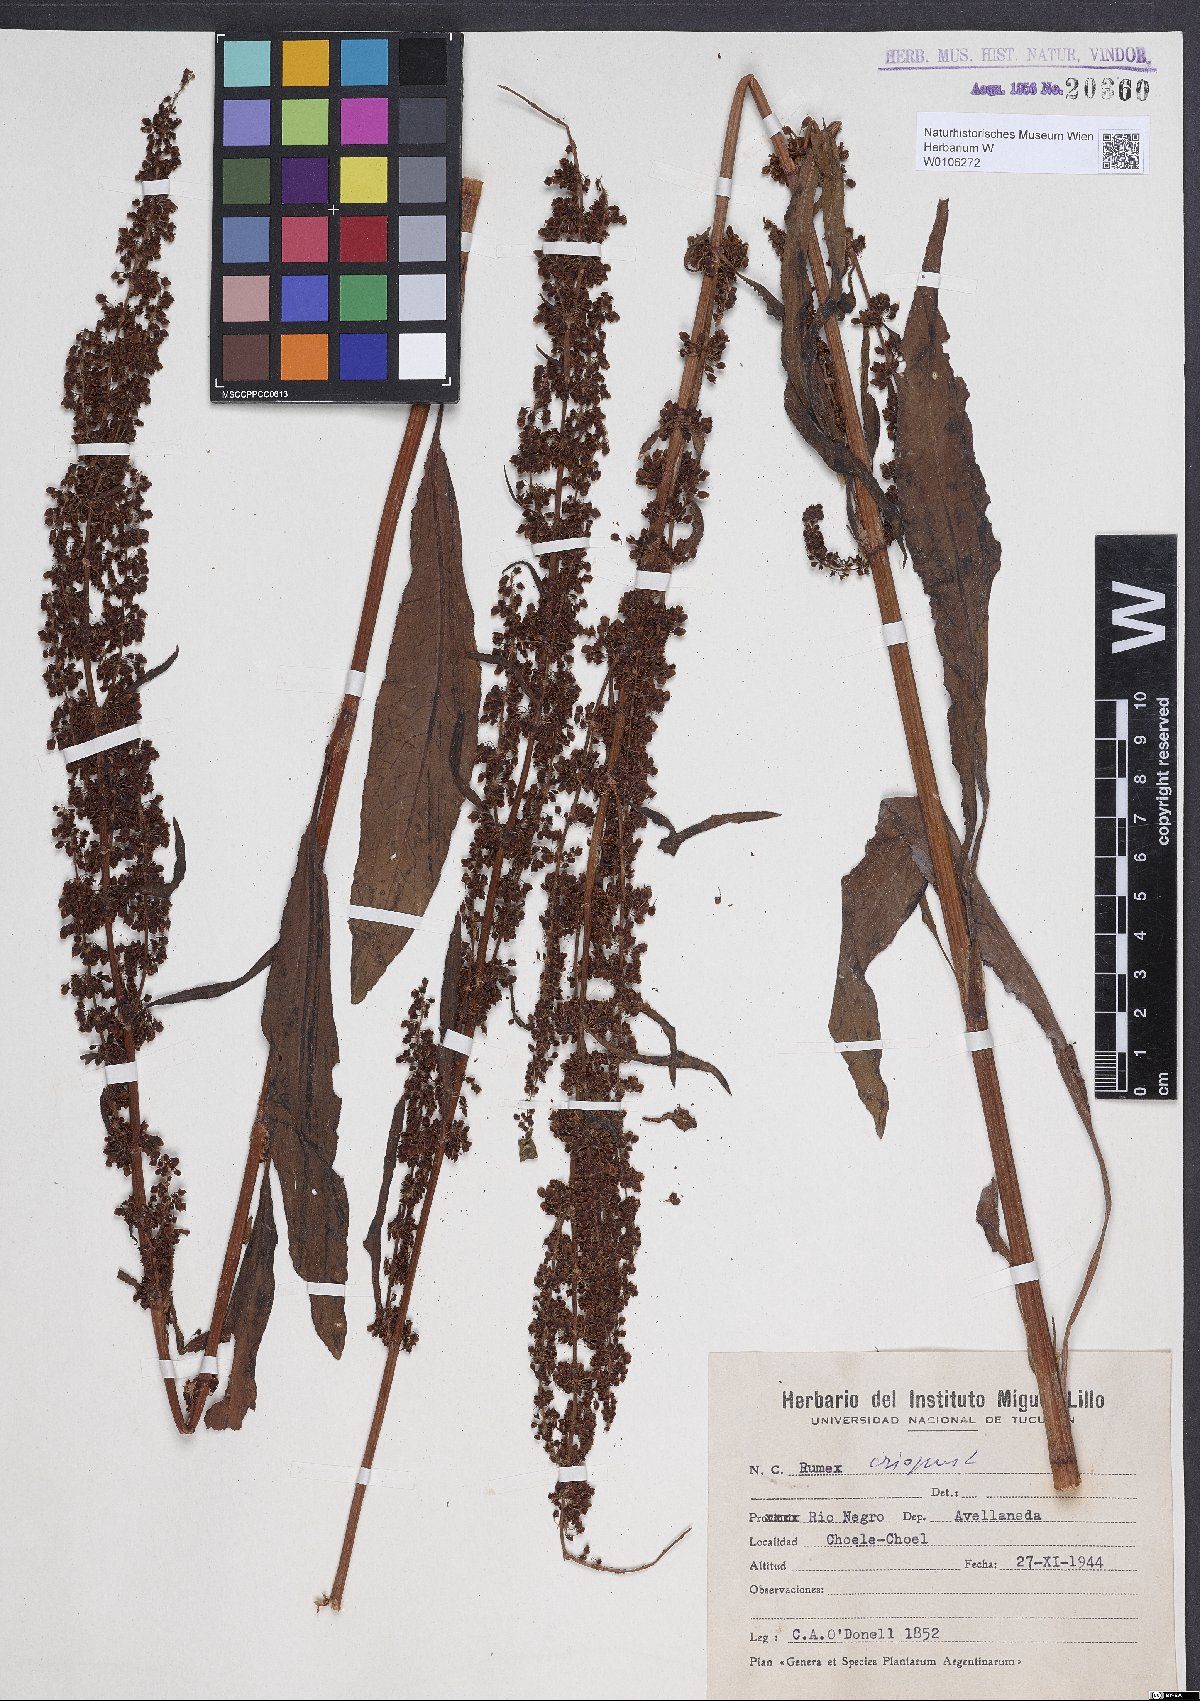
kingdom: Plantae
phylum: Tracheophyta
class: Magnoliopsida
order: Caryophyllales
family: Polygonaceae
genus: Rumex
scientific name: Rumex crispus
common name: Curled dock
